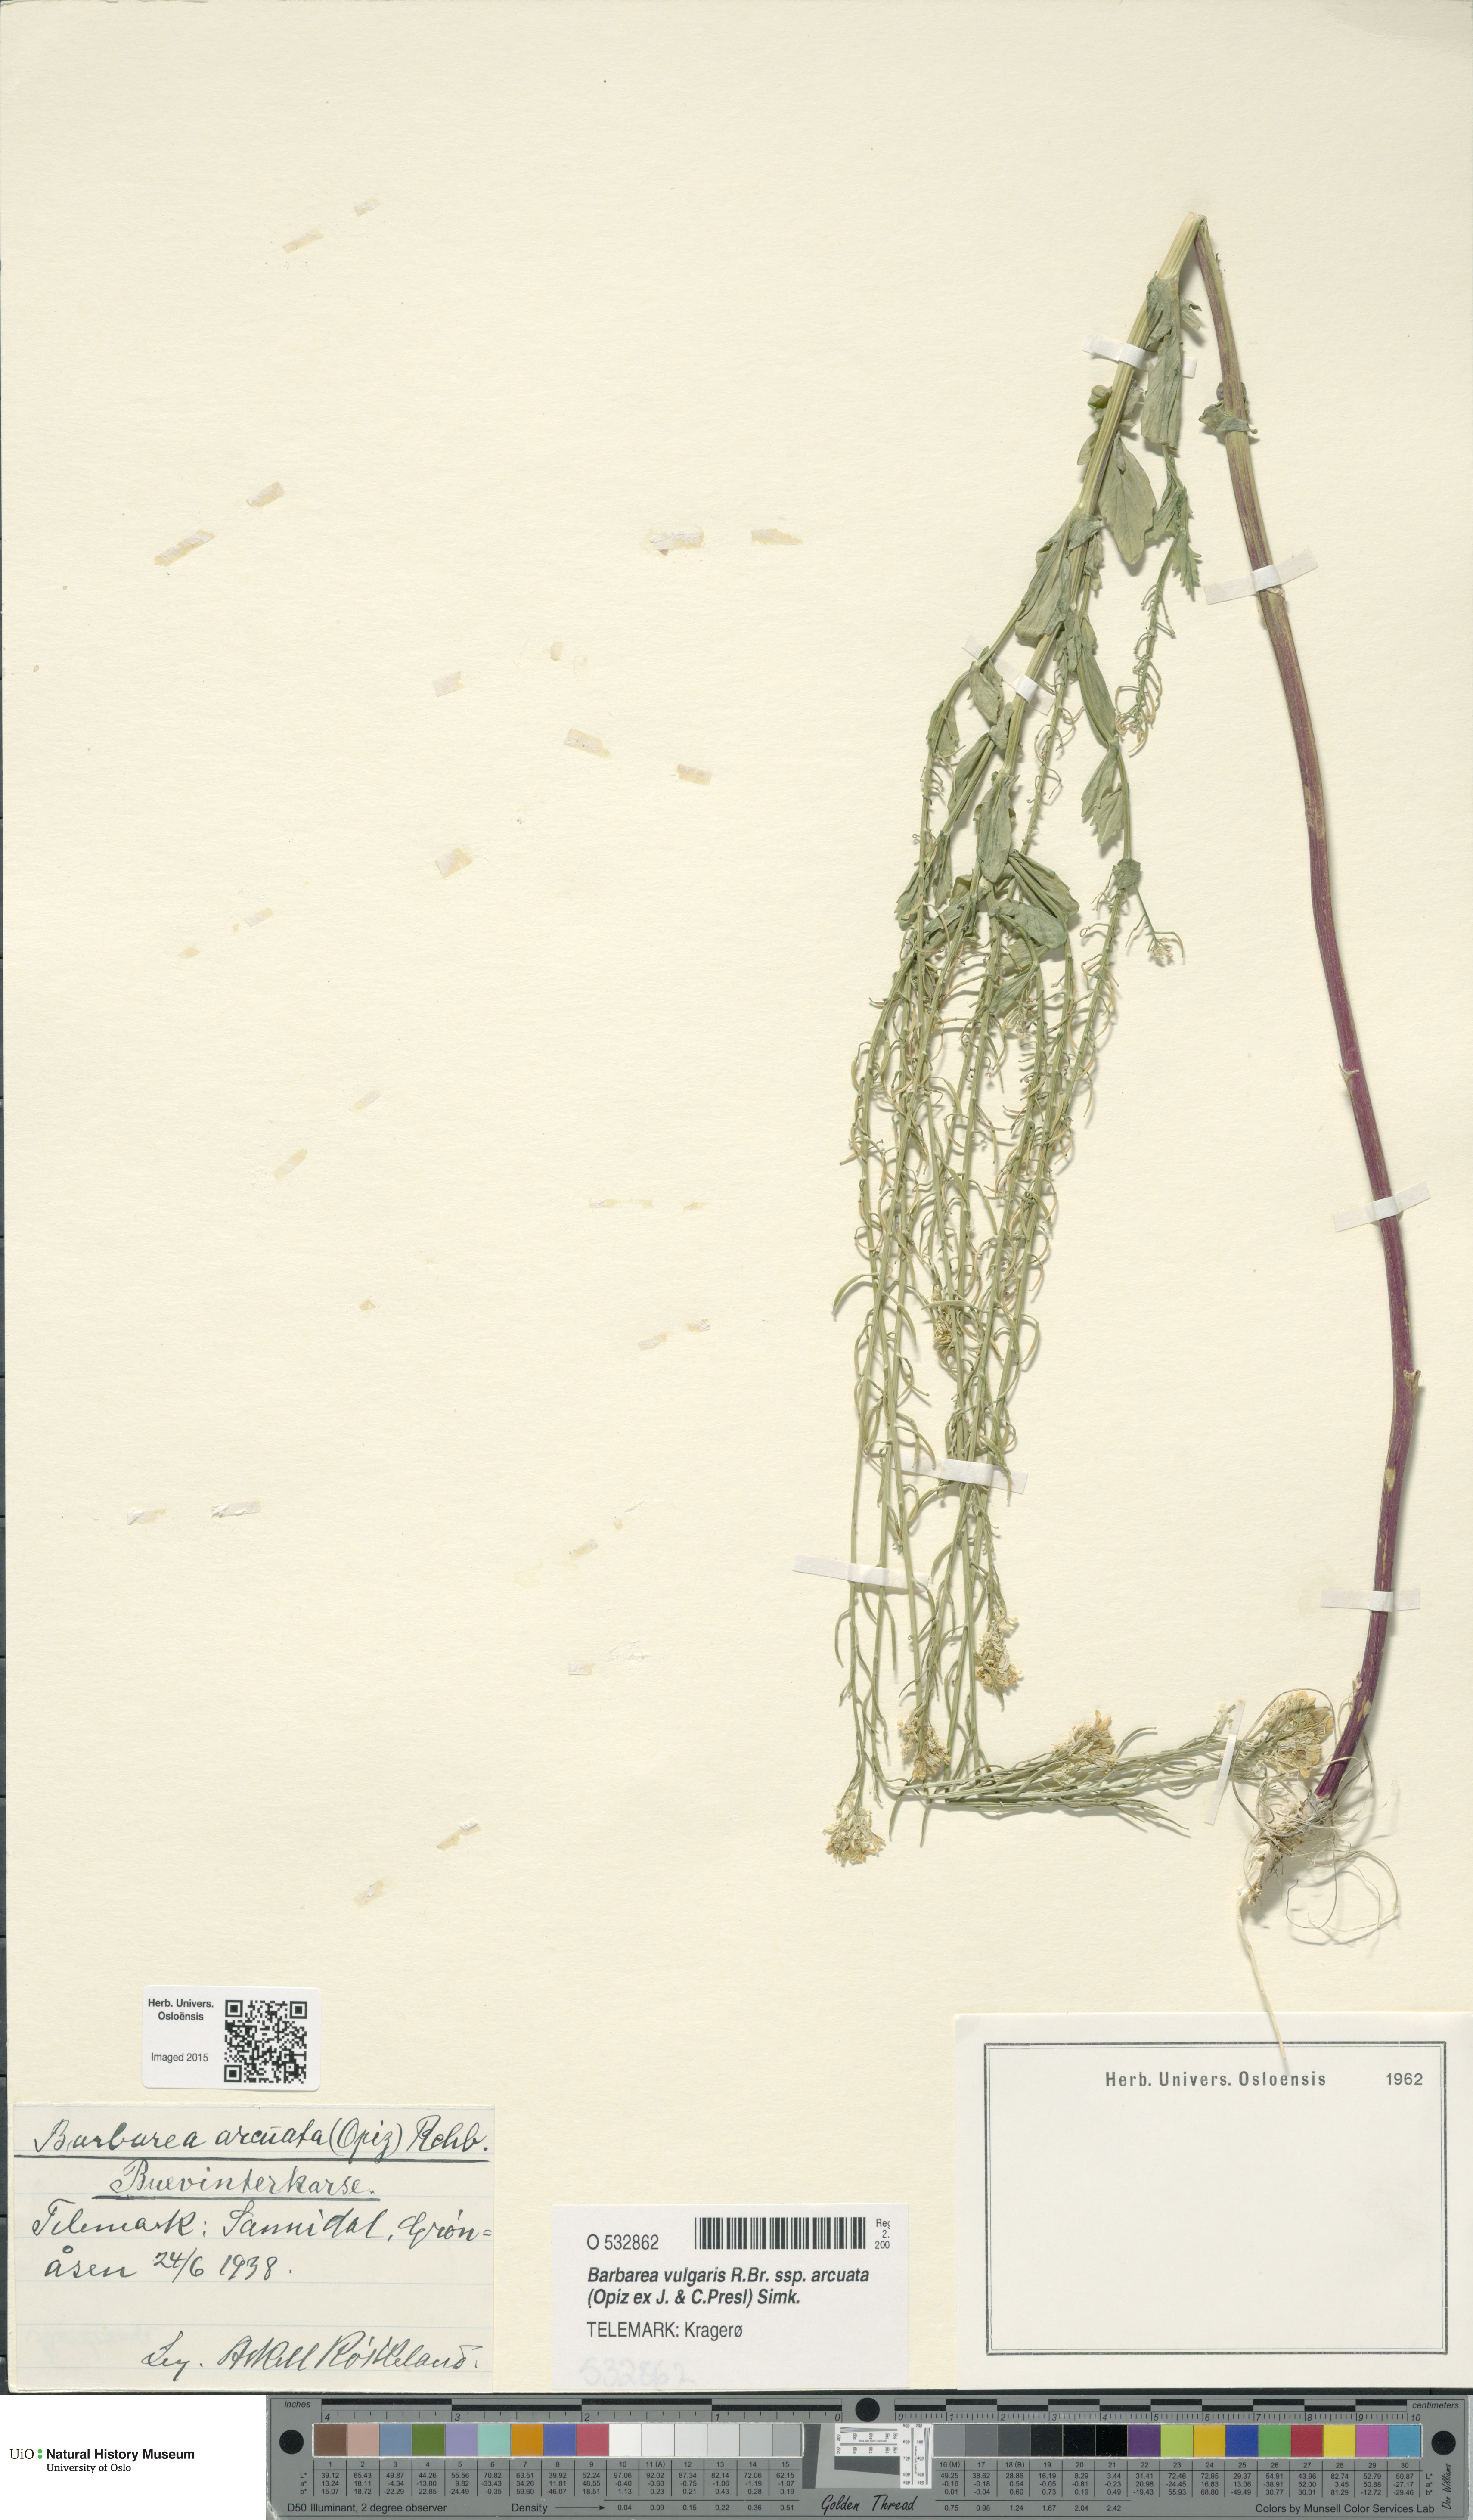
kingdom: Plantae
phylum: Tracheophyta
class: Magnoliopsida
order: Brassicales
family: Brassicaceae
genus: Barbarea
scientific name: Barbarea vulgaris
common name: Cressy-greens
